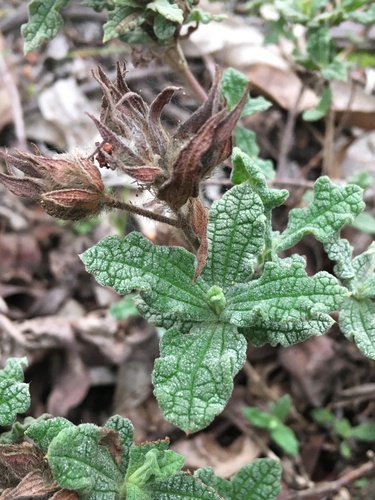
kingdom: Plantae
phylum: Tracheophyta
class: Magnoliopsida
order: Malvales
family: Cistaceae
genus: Cistus
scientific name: Cistus crispus
